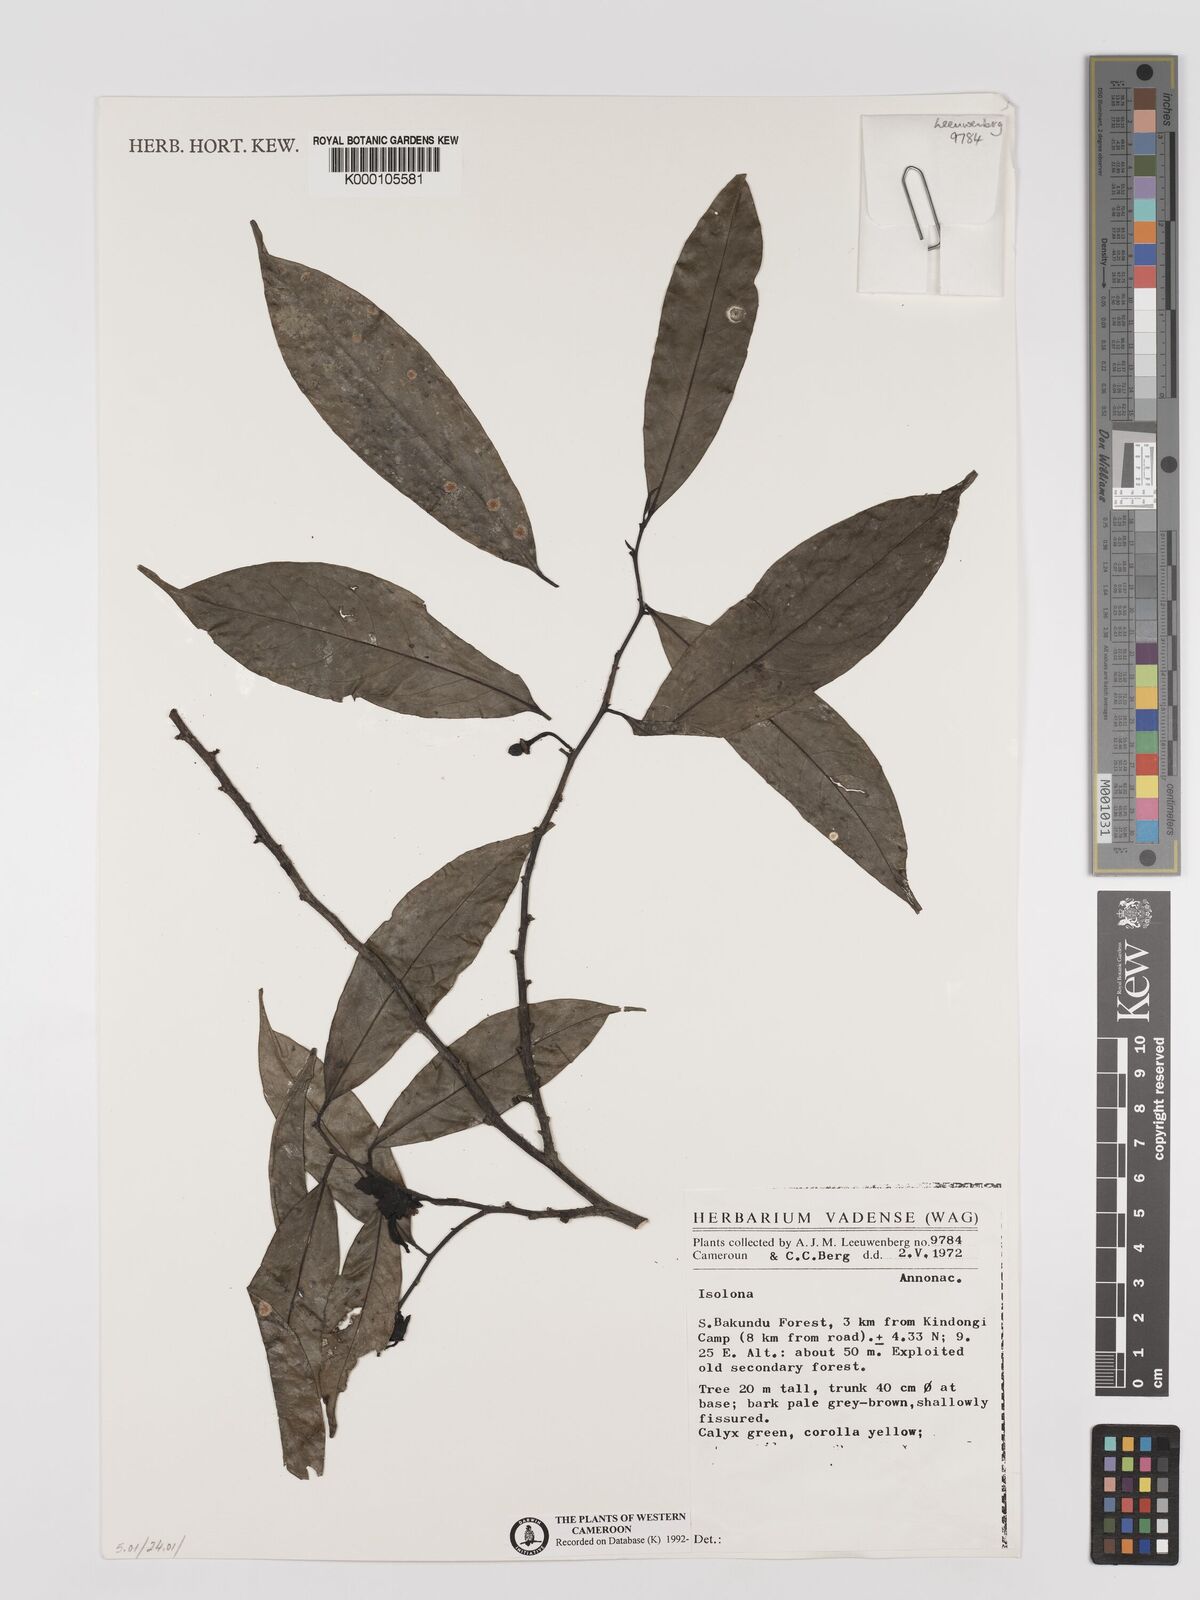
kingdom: Plantae
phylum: Tracheophyta
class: Magnoliopsida
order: Magnoliales
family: Annonaceae
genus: Isolona
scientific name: Isolona
